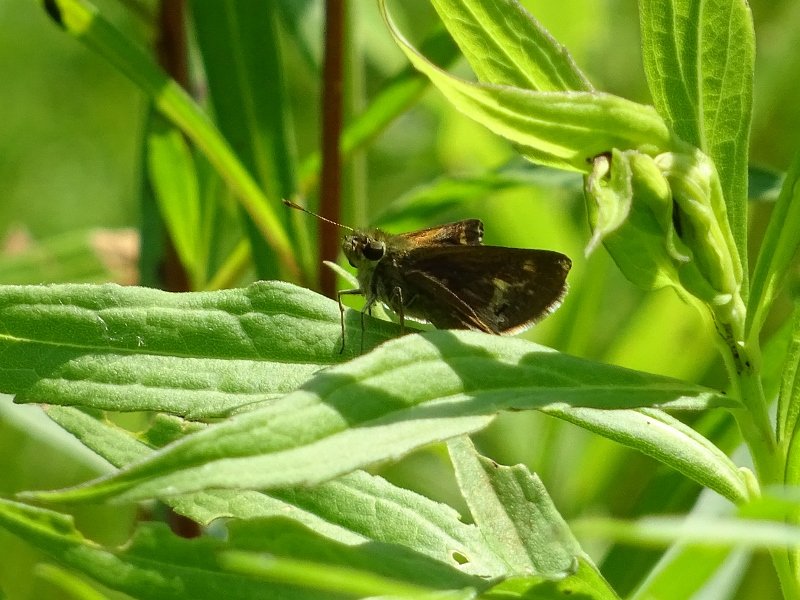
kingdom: Animalia
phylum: Arthropoda
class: Insecta
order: Lepidoptera
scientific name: Lepidoptera
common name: Butterflies
